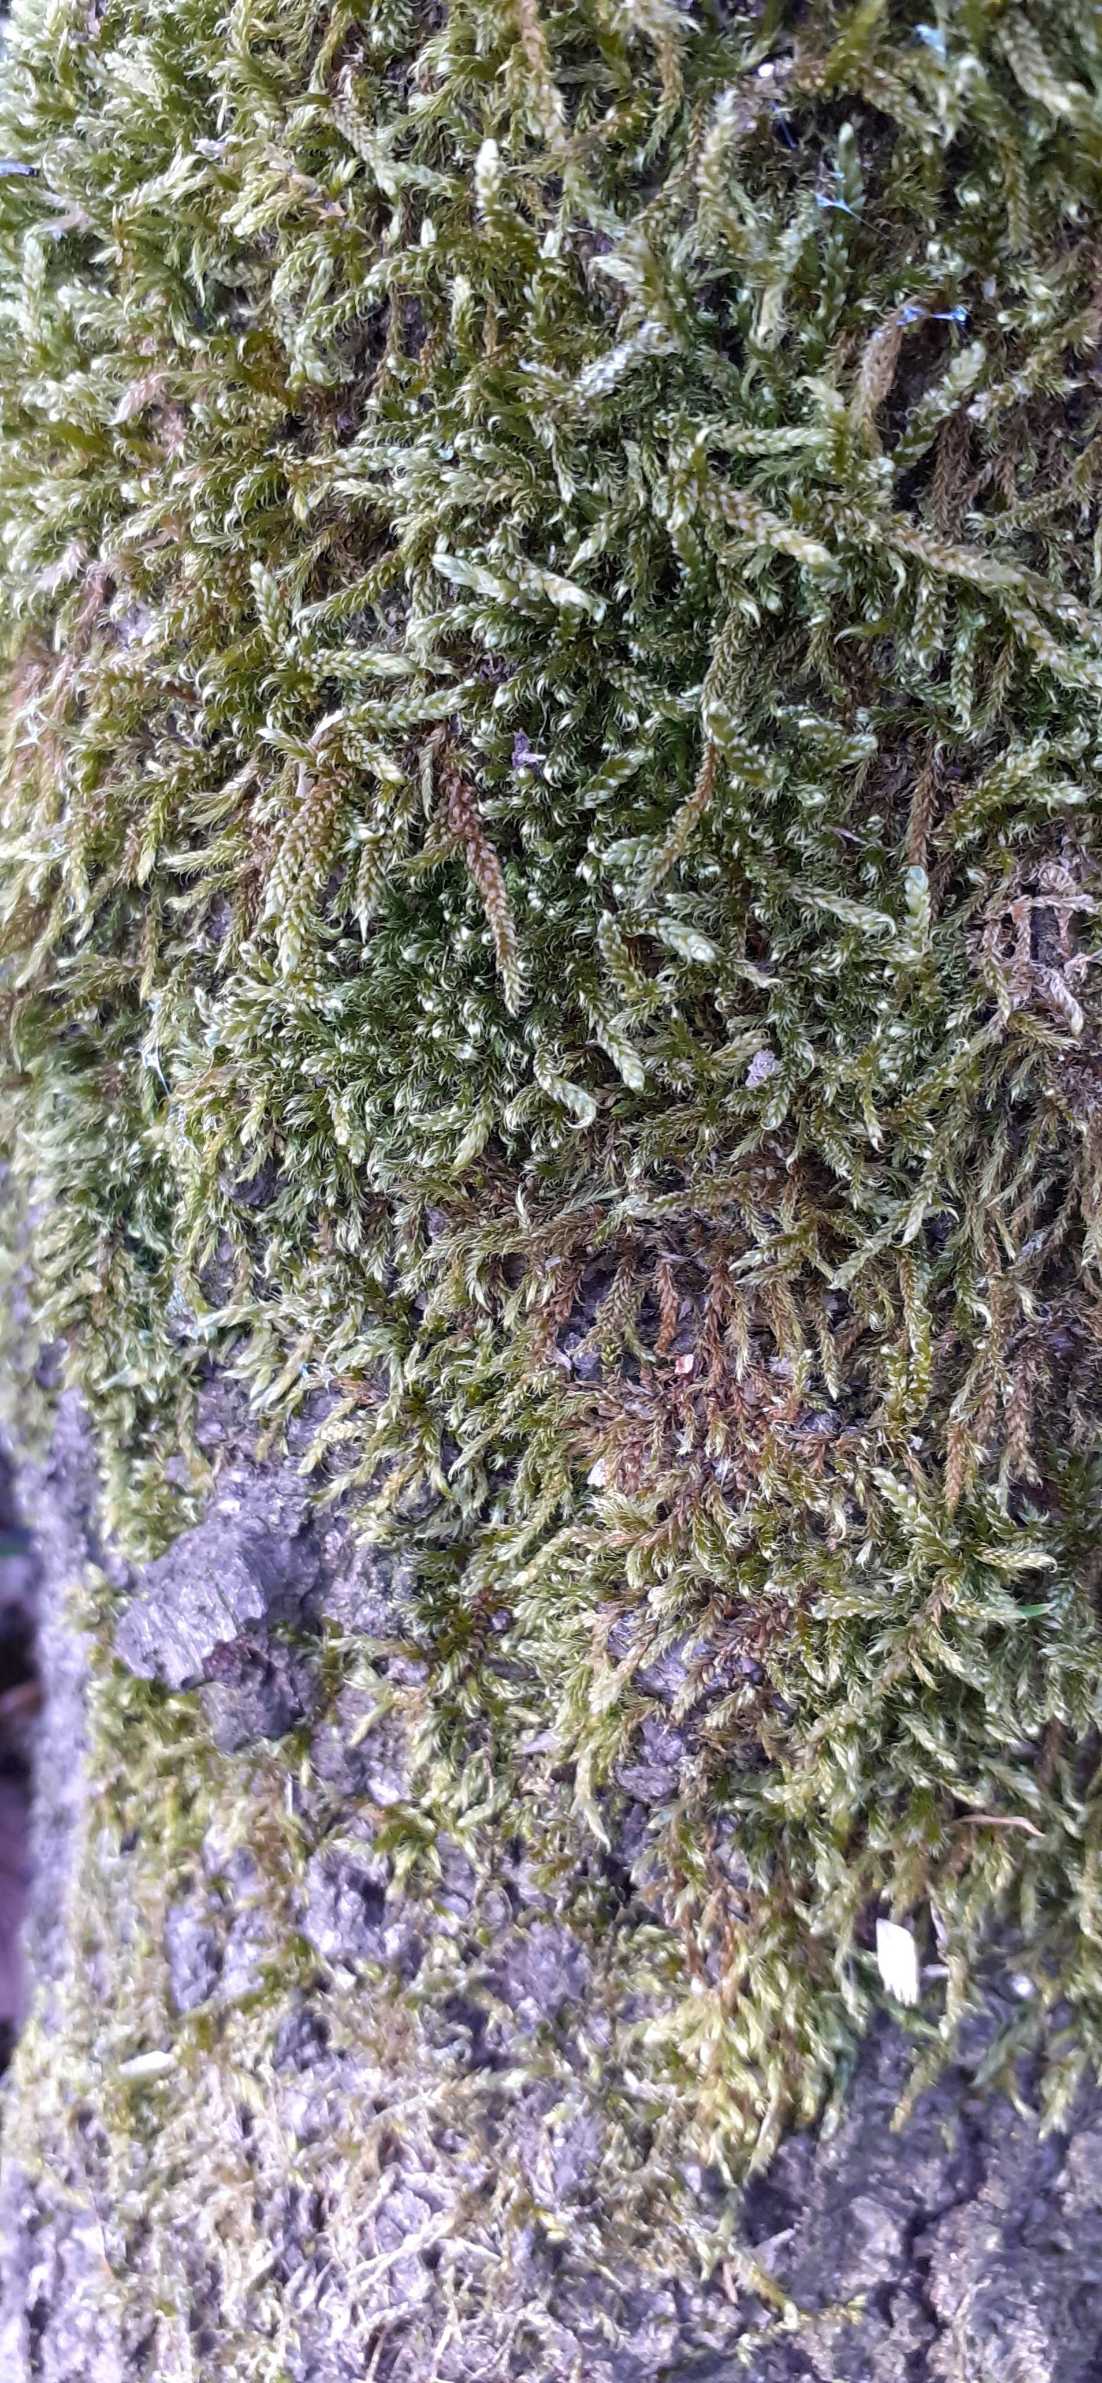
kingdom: Plantae
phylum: Bryophyta
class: Bryopsida
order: Hypnales
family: Hypnaceae
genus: Hypnum
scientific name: Hypnum cupressiforme
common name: Almindelig cypresmos
